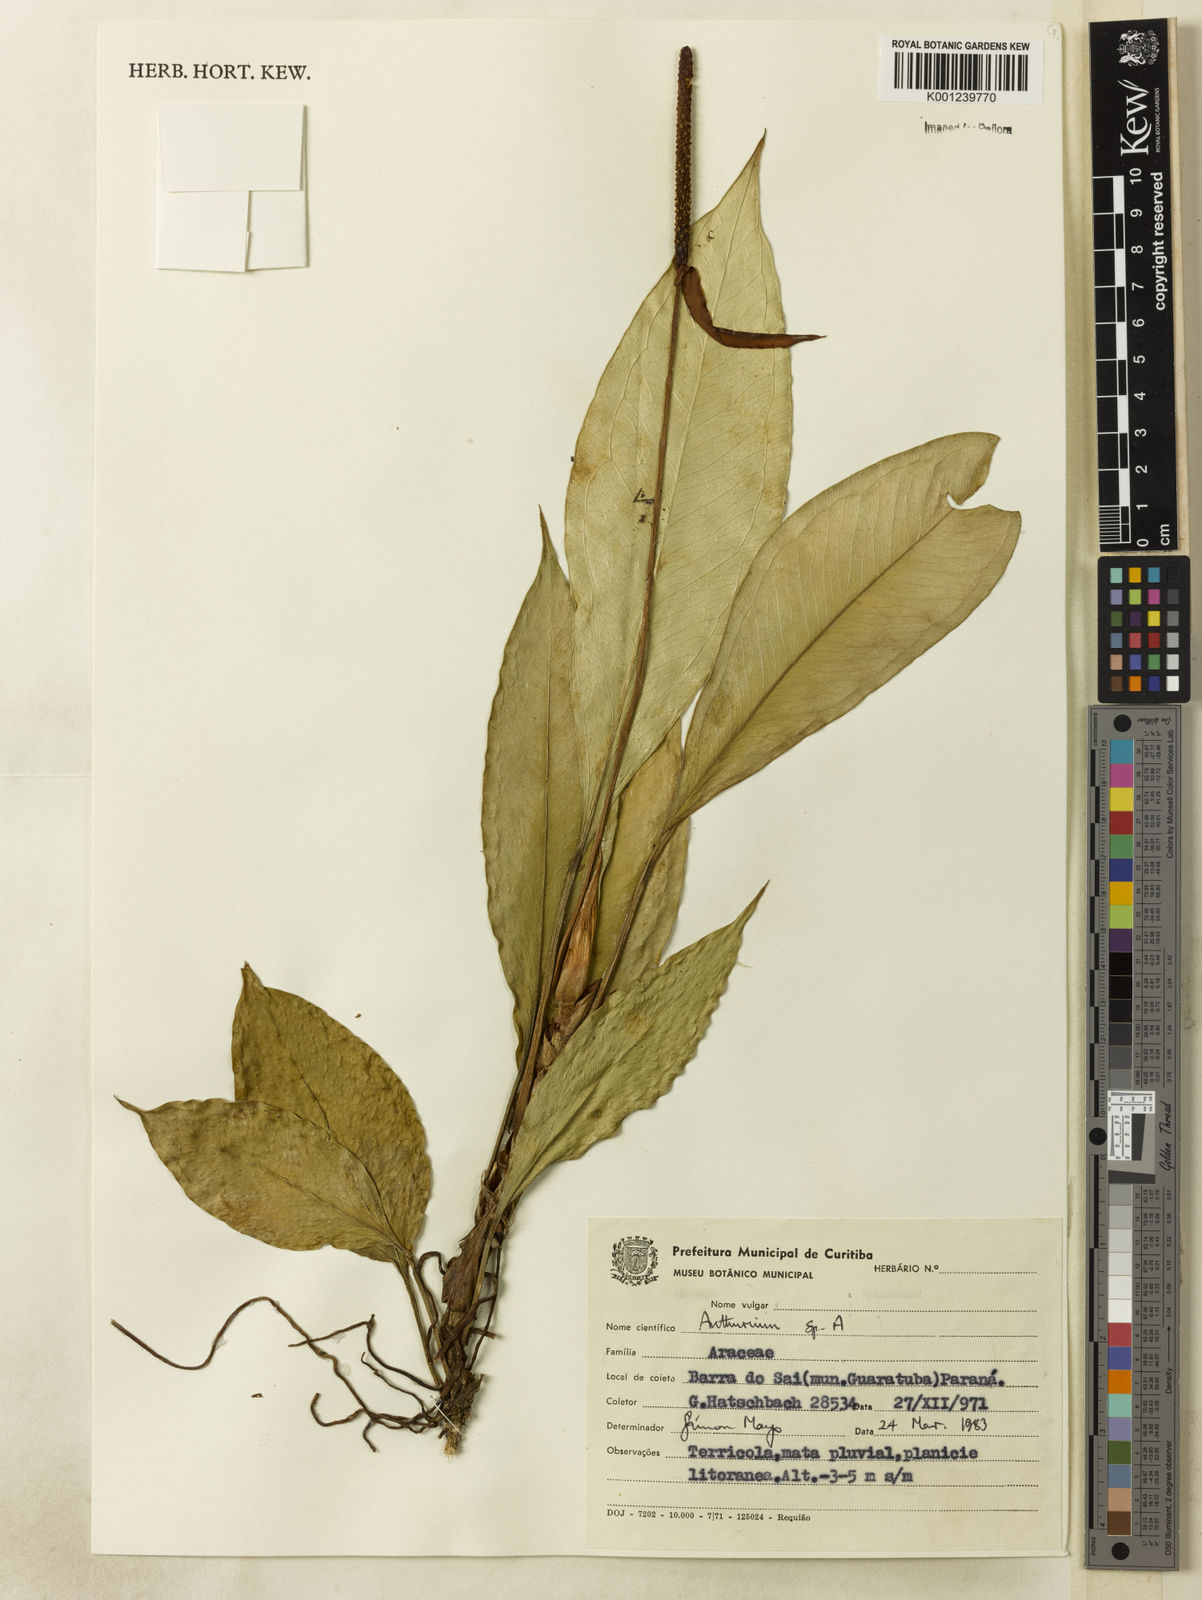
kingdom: Plantae
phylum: Tracheophyta
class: Liliopsida
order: Alismatales
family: Araceae
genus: Anthurium
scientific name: Anthurium
